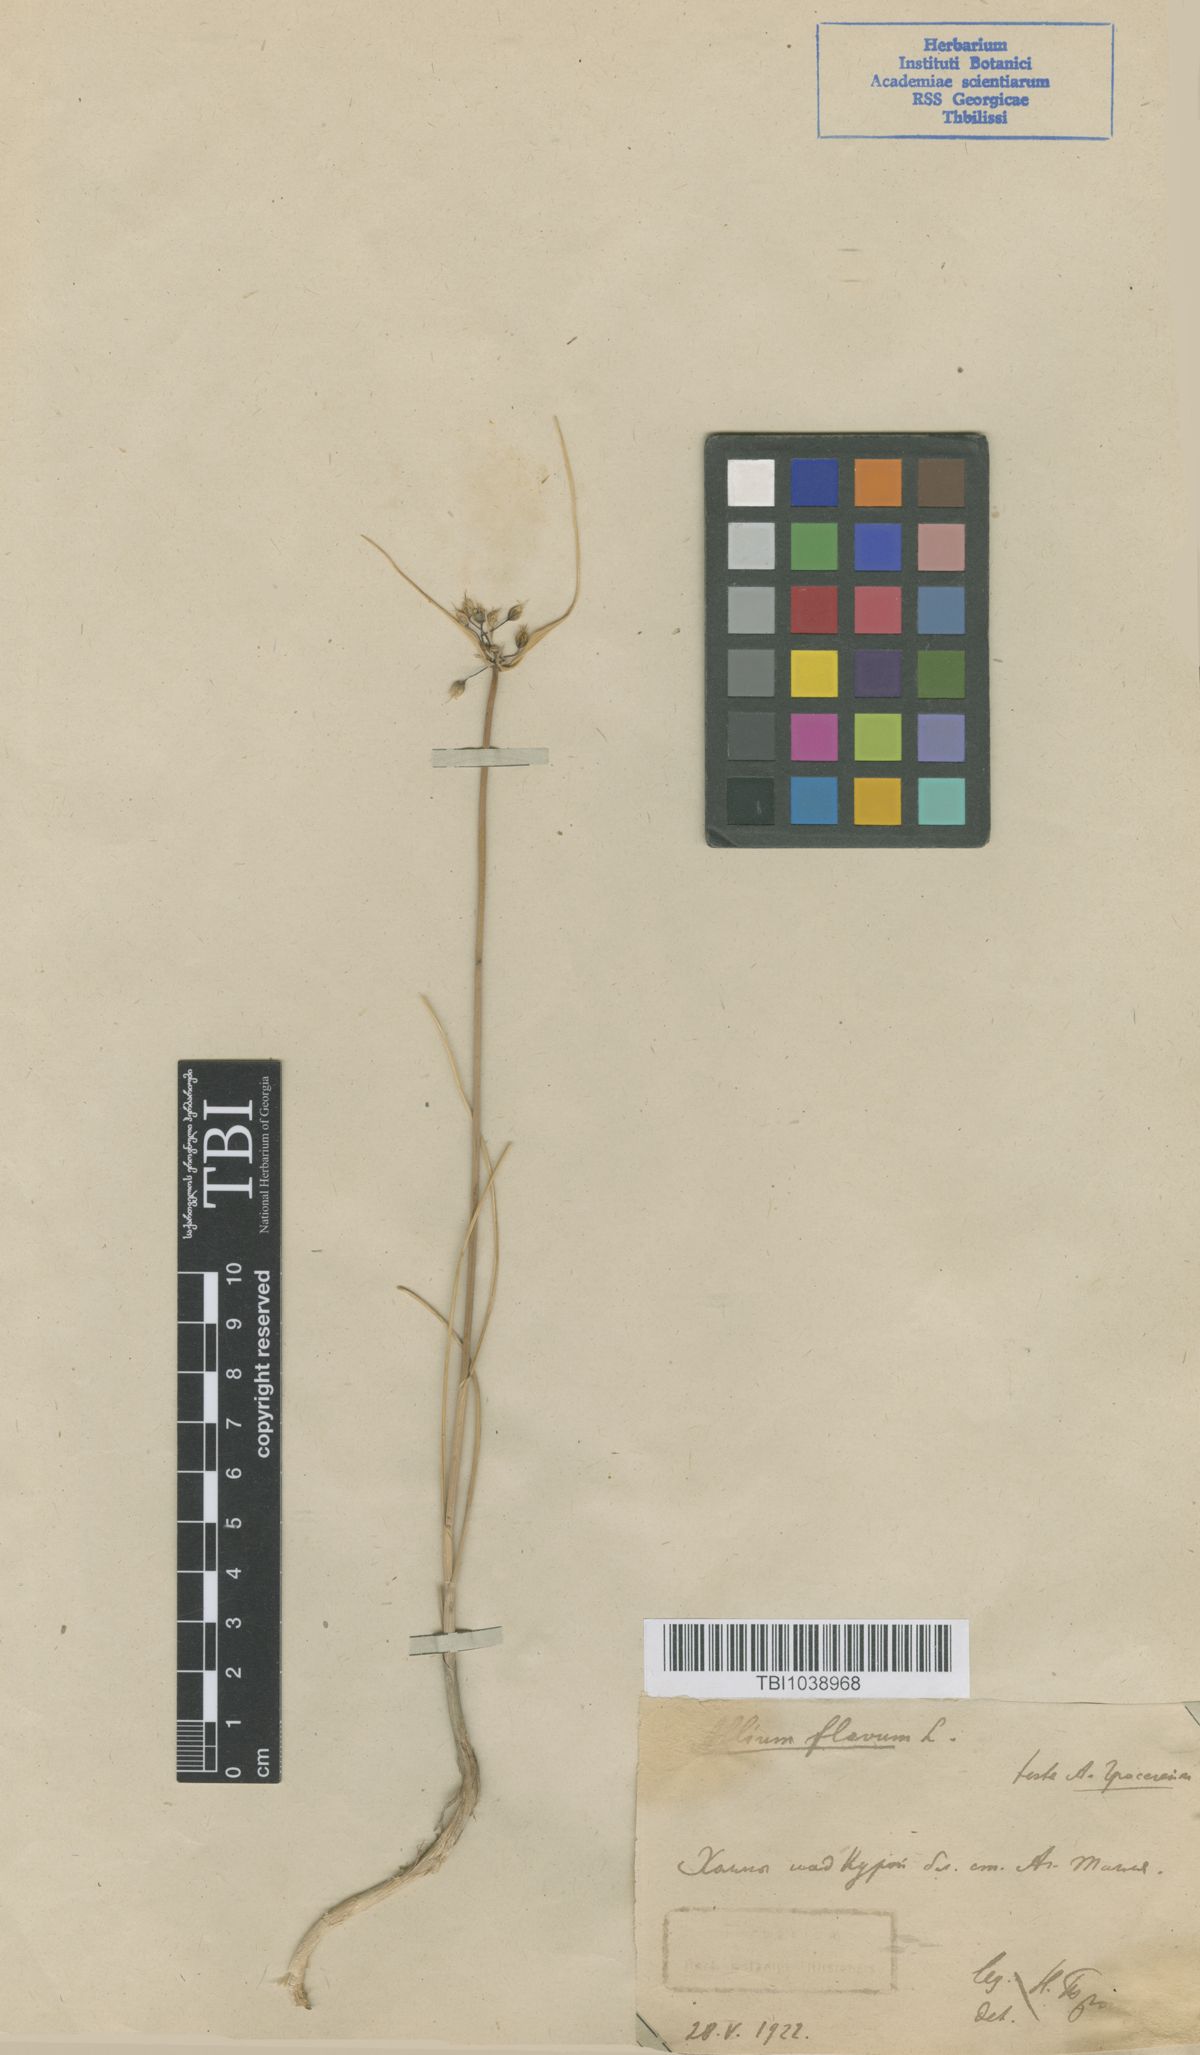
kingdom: Plantae
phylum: Tracheophyta
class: Liliopsida
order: Asparagales
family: Amaryllidaceae
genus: Allium
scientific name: Allium pseudoflavum
